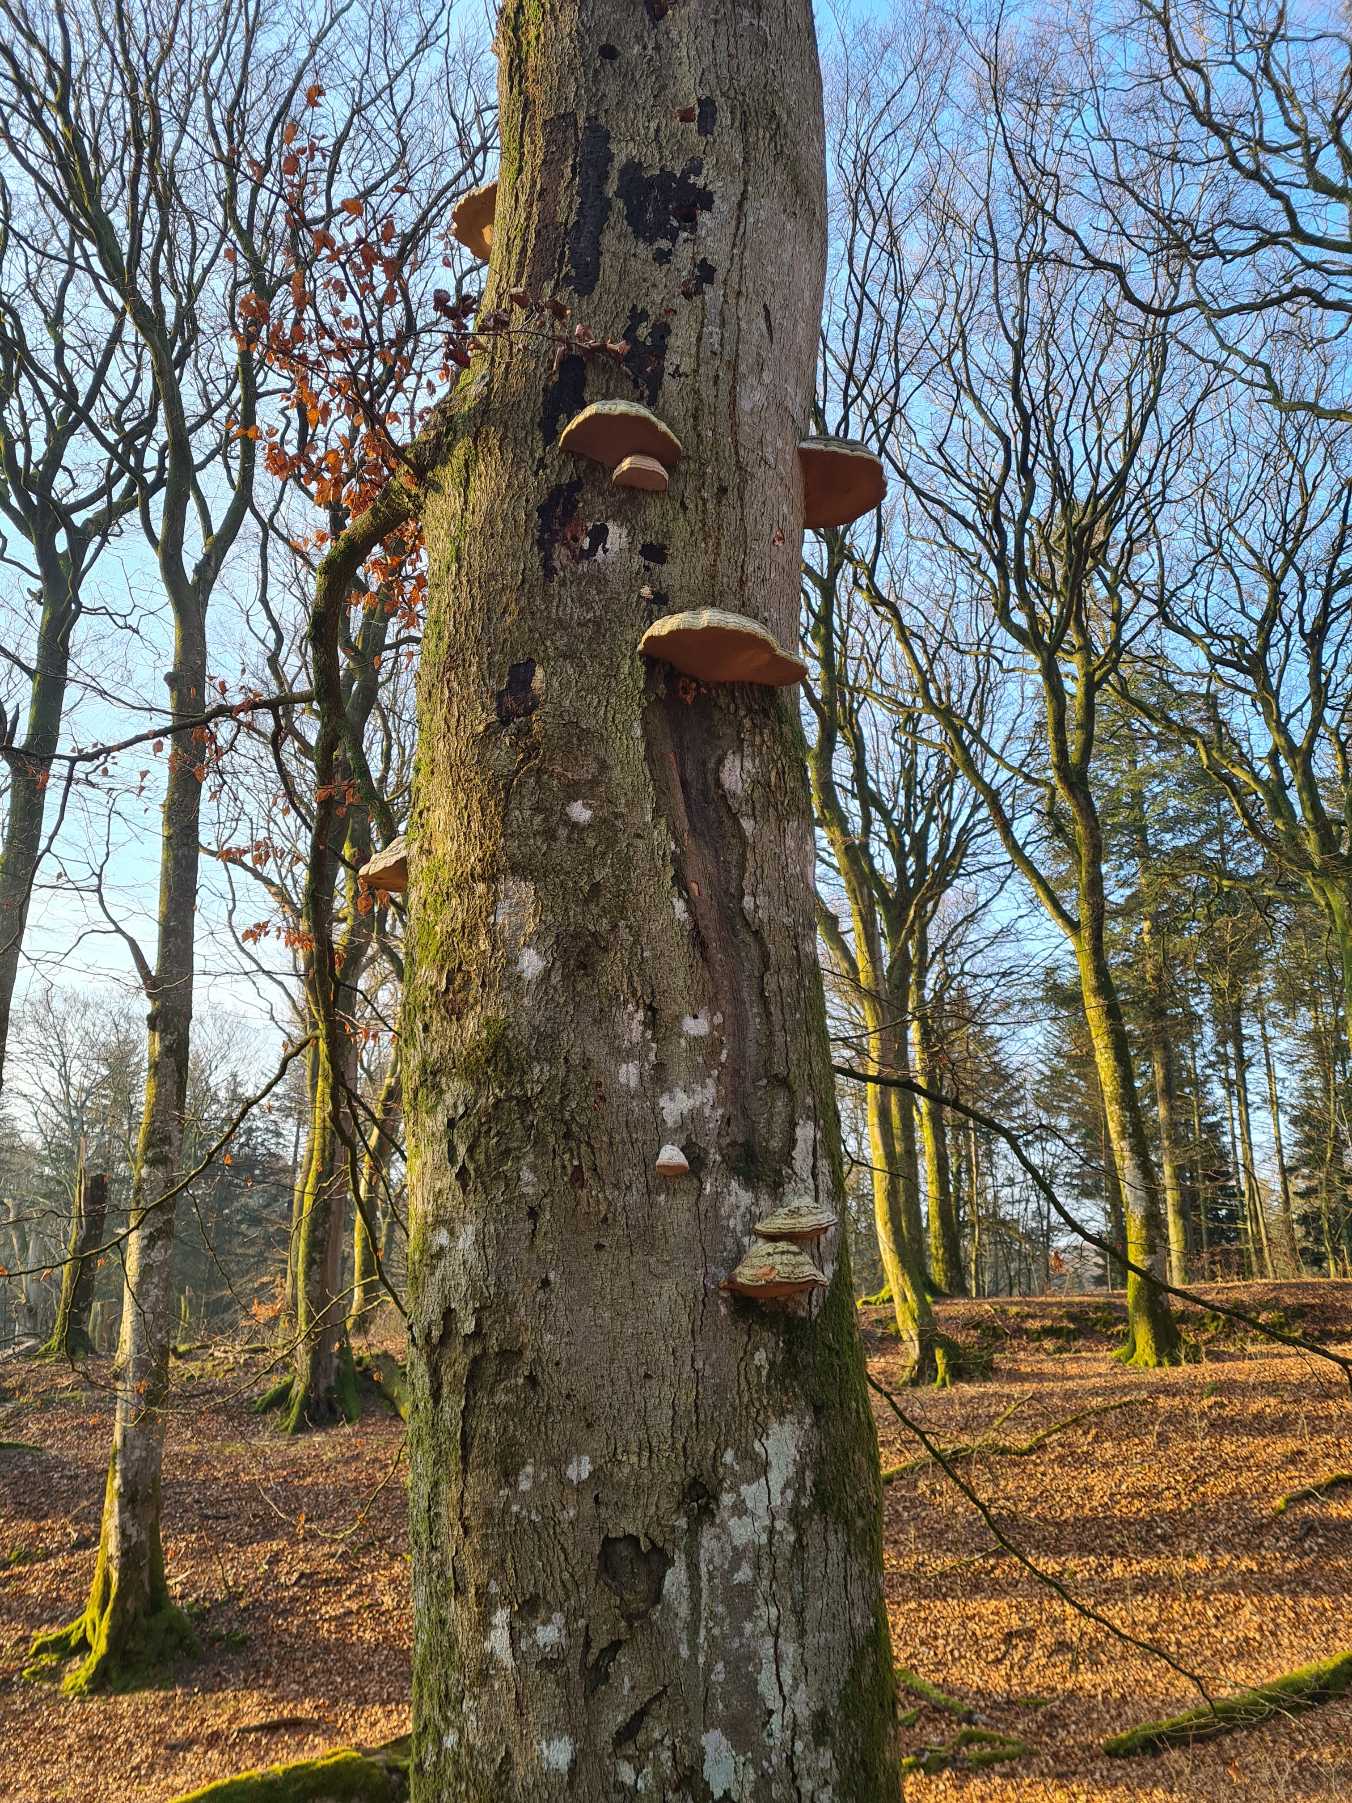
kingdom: Fungi
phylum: Basidiomycota
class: Agaricomycetes
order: Polyporales
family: Polyporaceae
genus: Fomes
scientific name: Fomes
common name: Tøndersvamp
